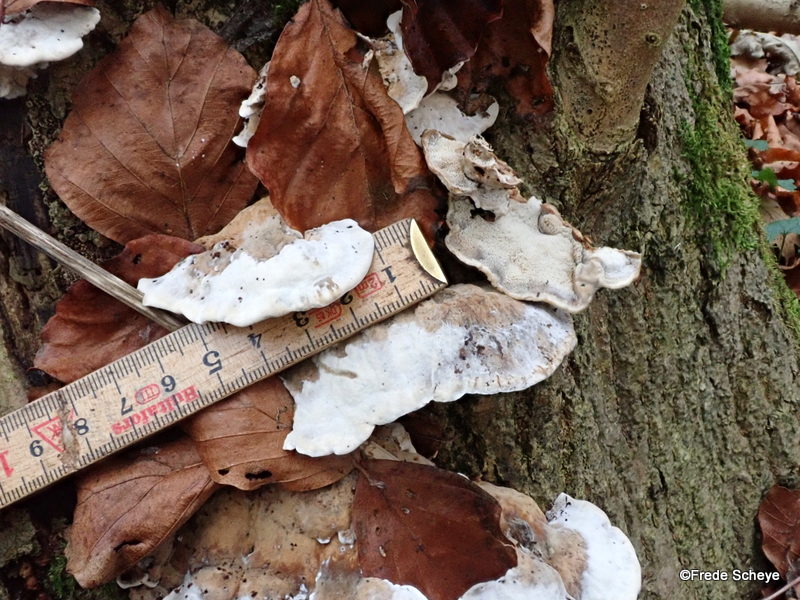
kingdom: Fungi
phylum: Basidiomycota
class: Agaricomycetes
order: Polyporales
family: Phanerochaetaceae
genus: Bjerkandera
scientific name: Bjerkandera fumosa
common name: grågul sodporesvamp
